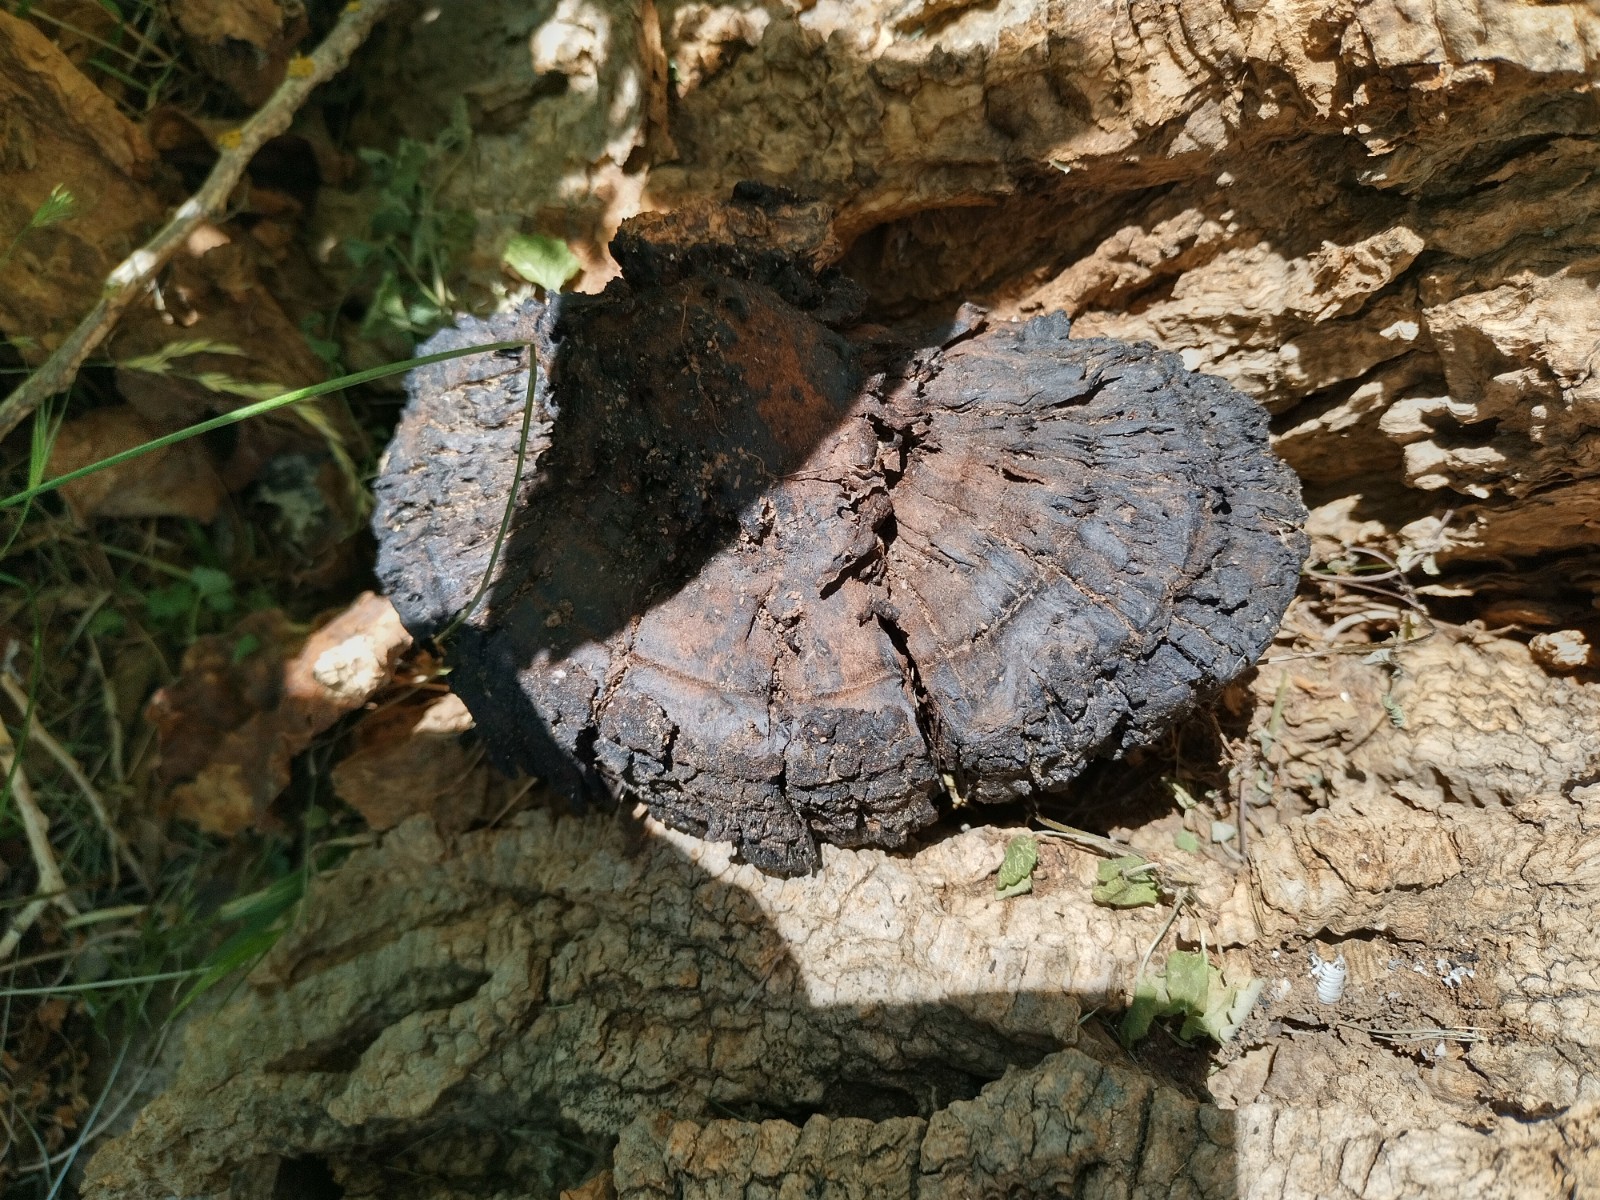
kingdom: Fungi
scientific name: Fungi
